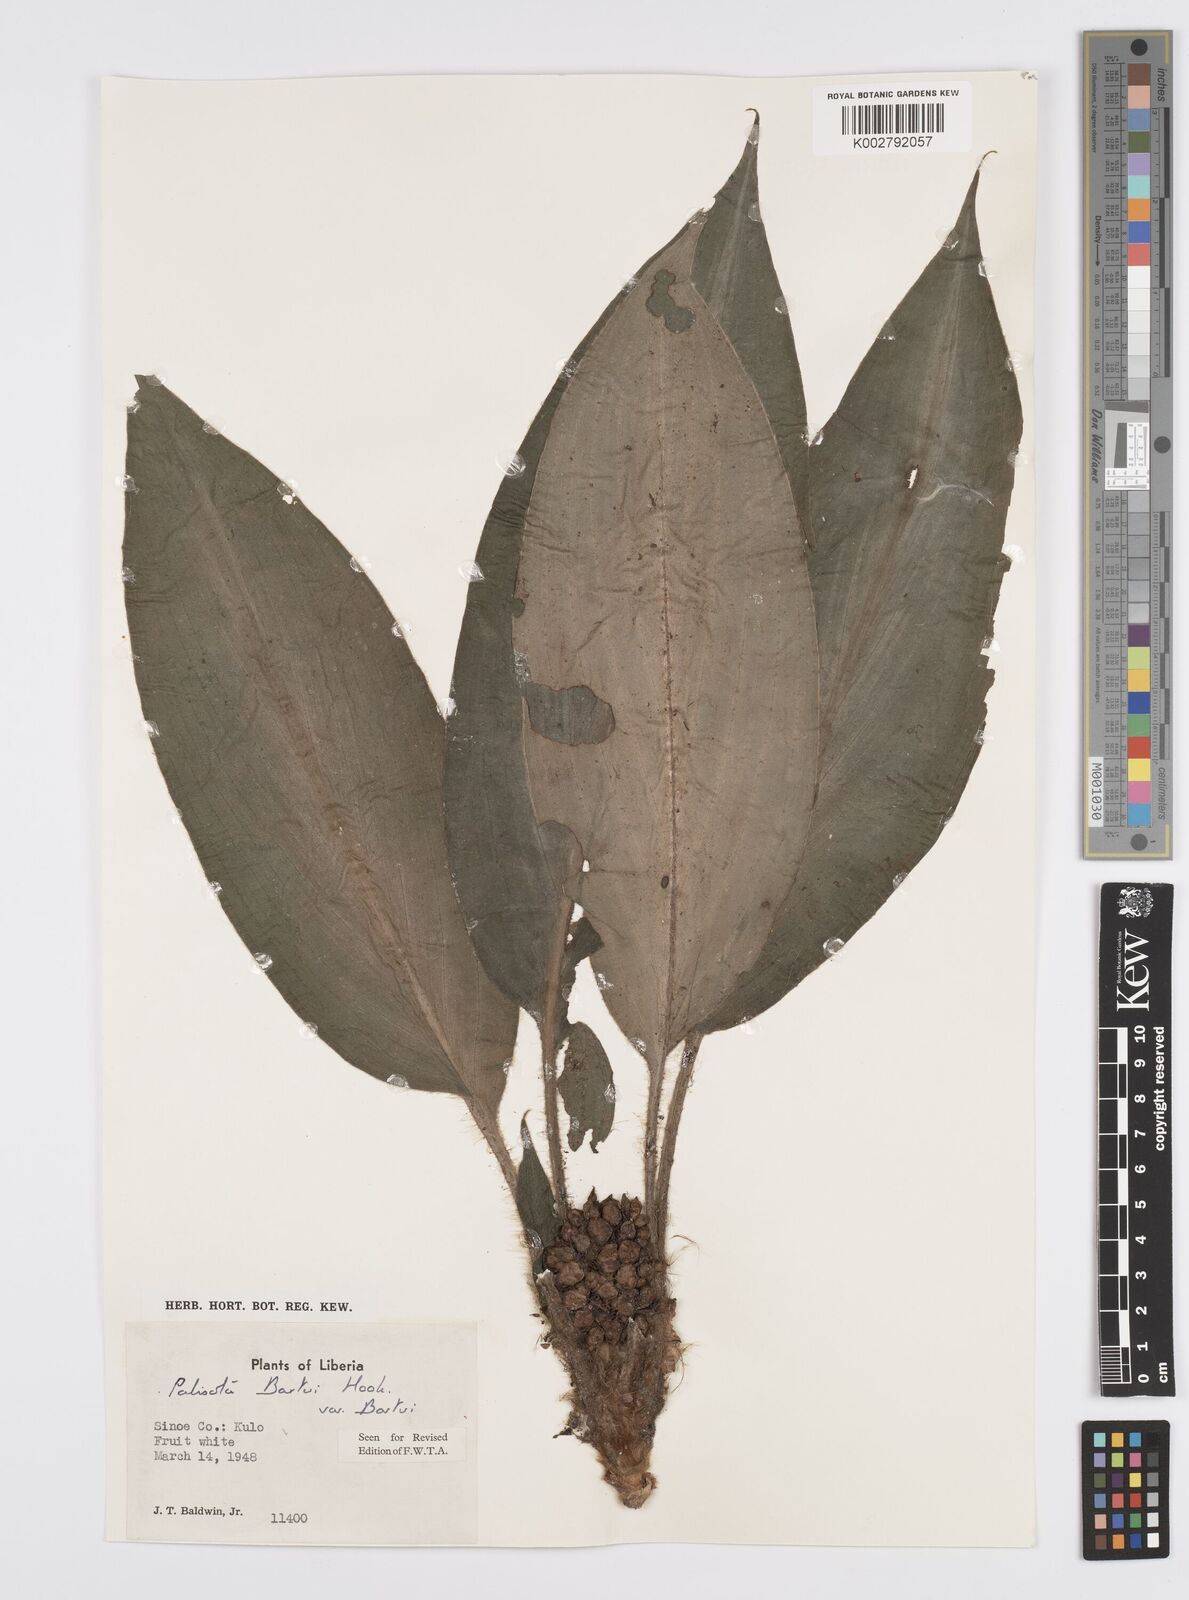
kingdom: Plantae
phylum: Tracheophyta
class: Liliopsida
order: Commelinales
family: Commelinaceae
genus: Palisota
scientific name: Palisota barteri
